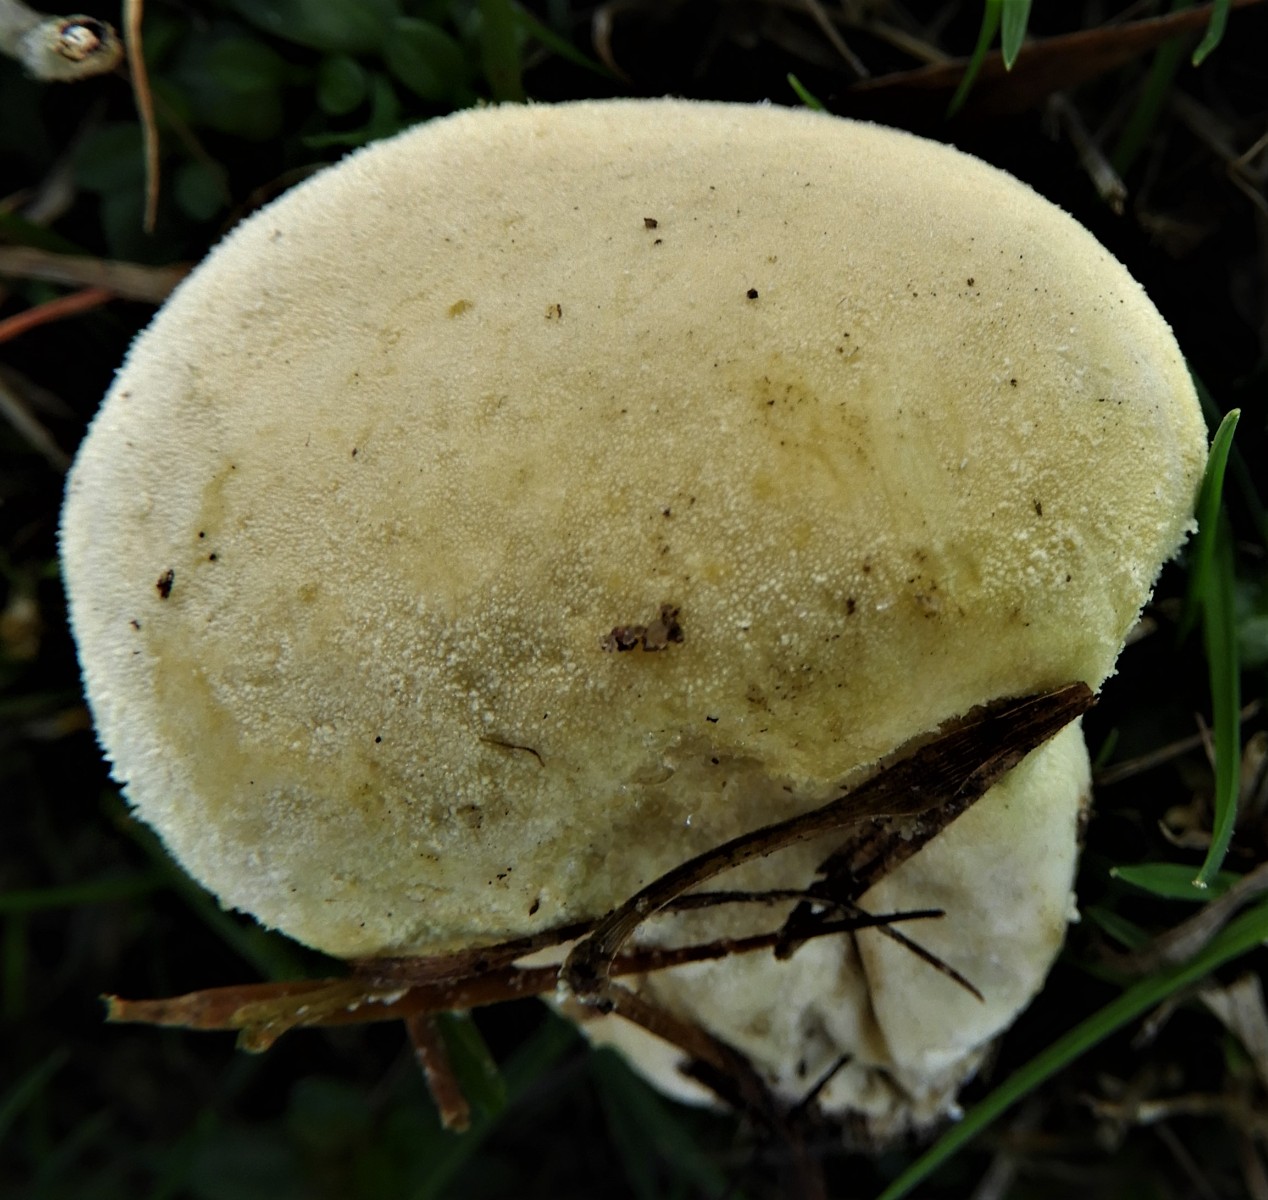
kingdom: Fungi
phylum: Basidiomycota
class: Agaricomycetes
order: Agaricales
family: Agaricaceae
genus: Lycoperdon
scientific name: Lycoperdon
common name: støvbold
